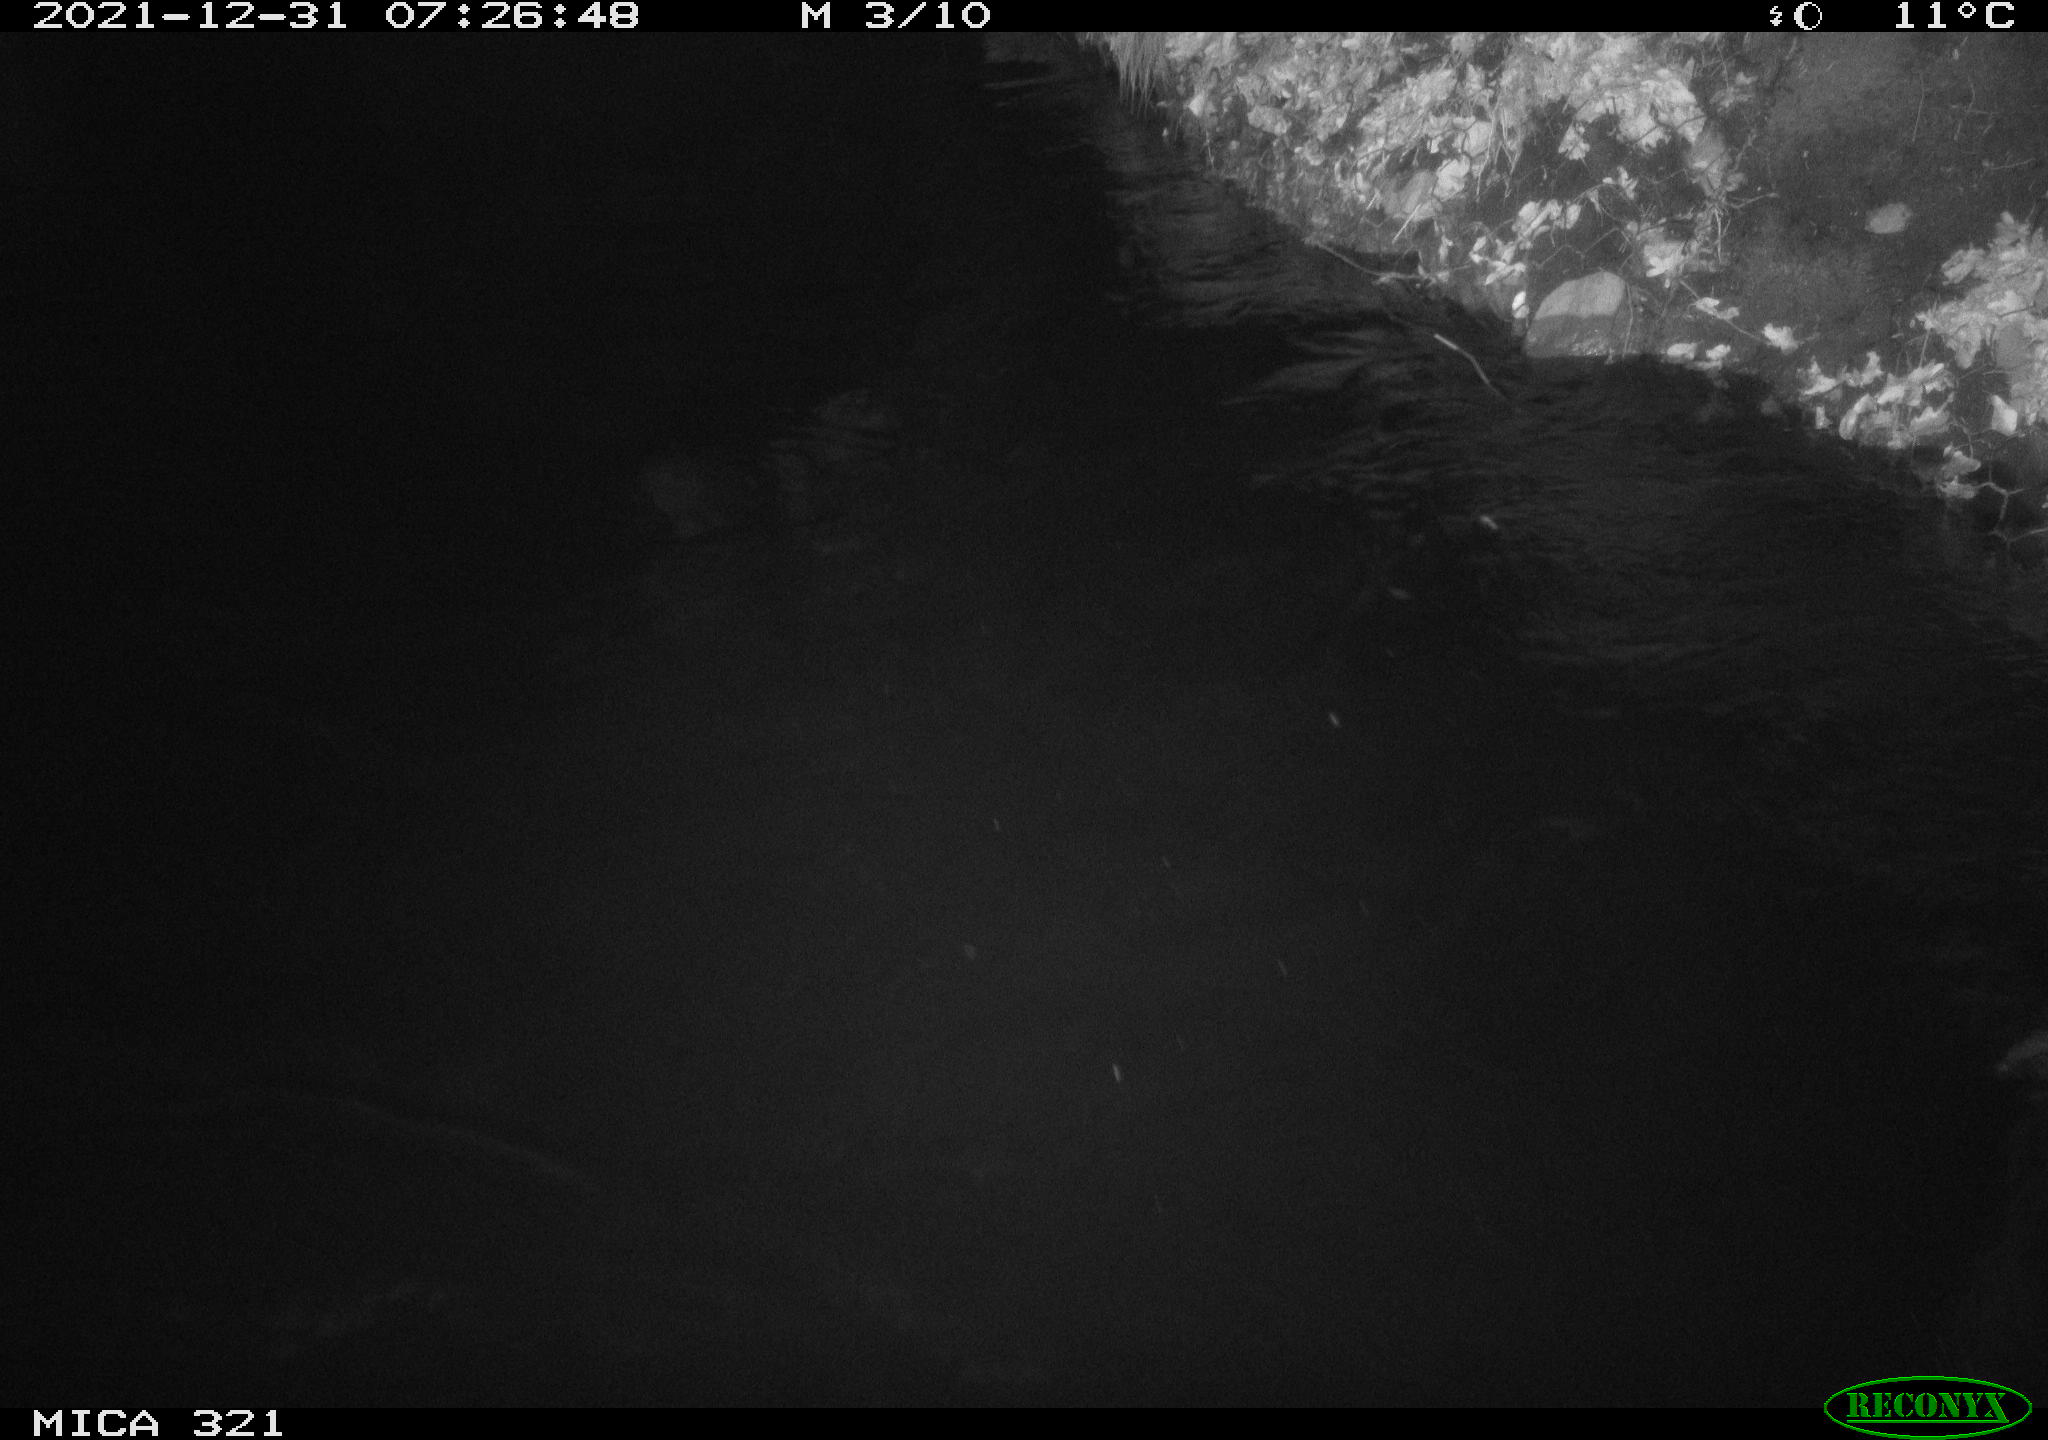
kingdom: Animalia
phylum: Chordata
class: Aves
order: Anseriformes
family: Anatidae
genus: Anas
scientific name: Anas platyrhynchos
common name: Mallard
